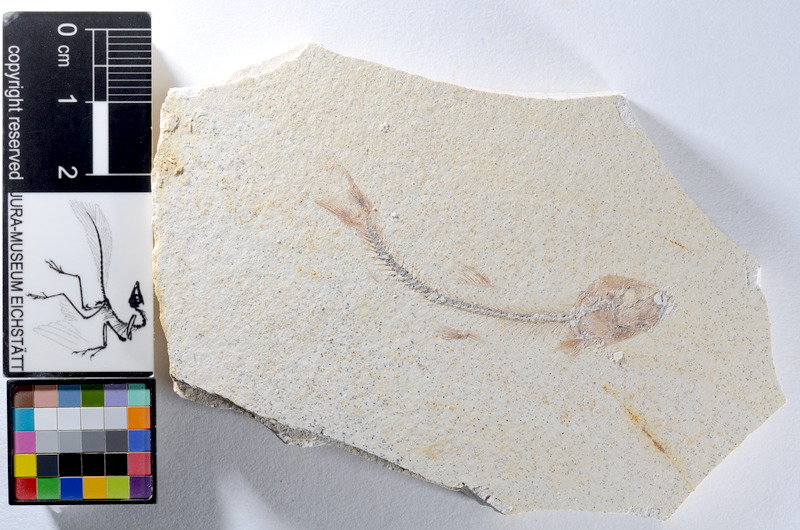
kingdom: Animalia
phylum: Chordata
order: Salmoniformes
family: Orthogonikleithridae
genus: Orthogonikleithrus
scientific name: Orthogonikleithrus hoelli
